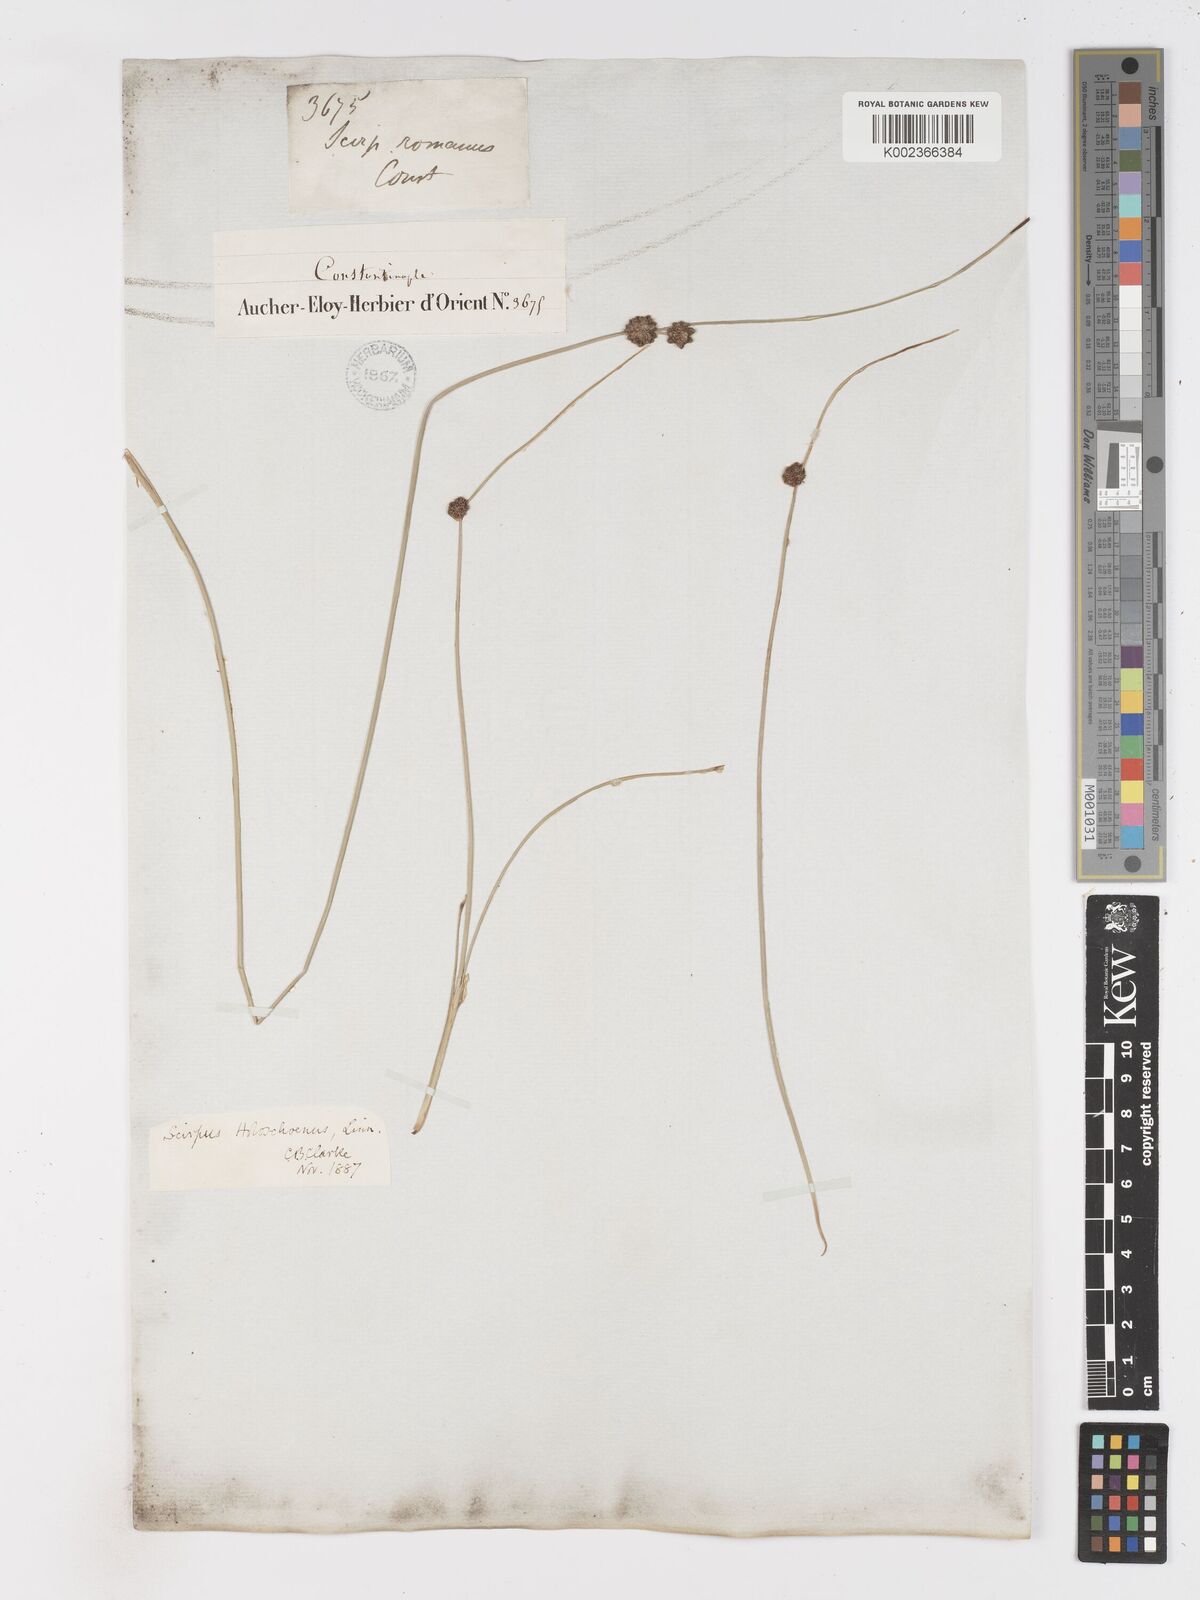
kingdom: Plantae
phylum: Tracheophyta
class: Liliopsida
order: Poales
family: Cyperaceae
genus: Scirpoides
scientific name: Scirpoides holoschoenus
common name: Round-headed club-rush
